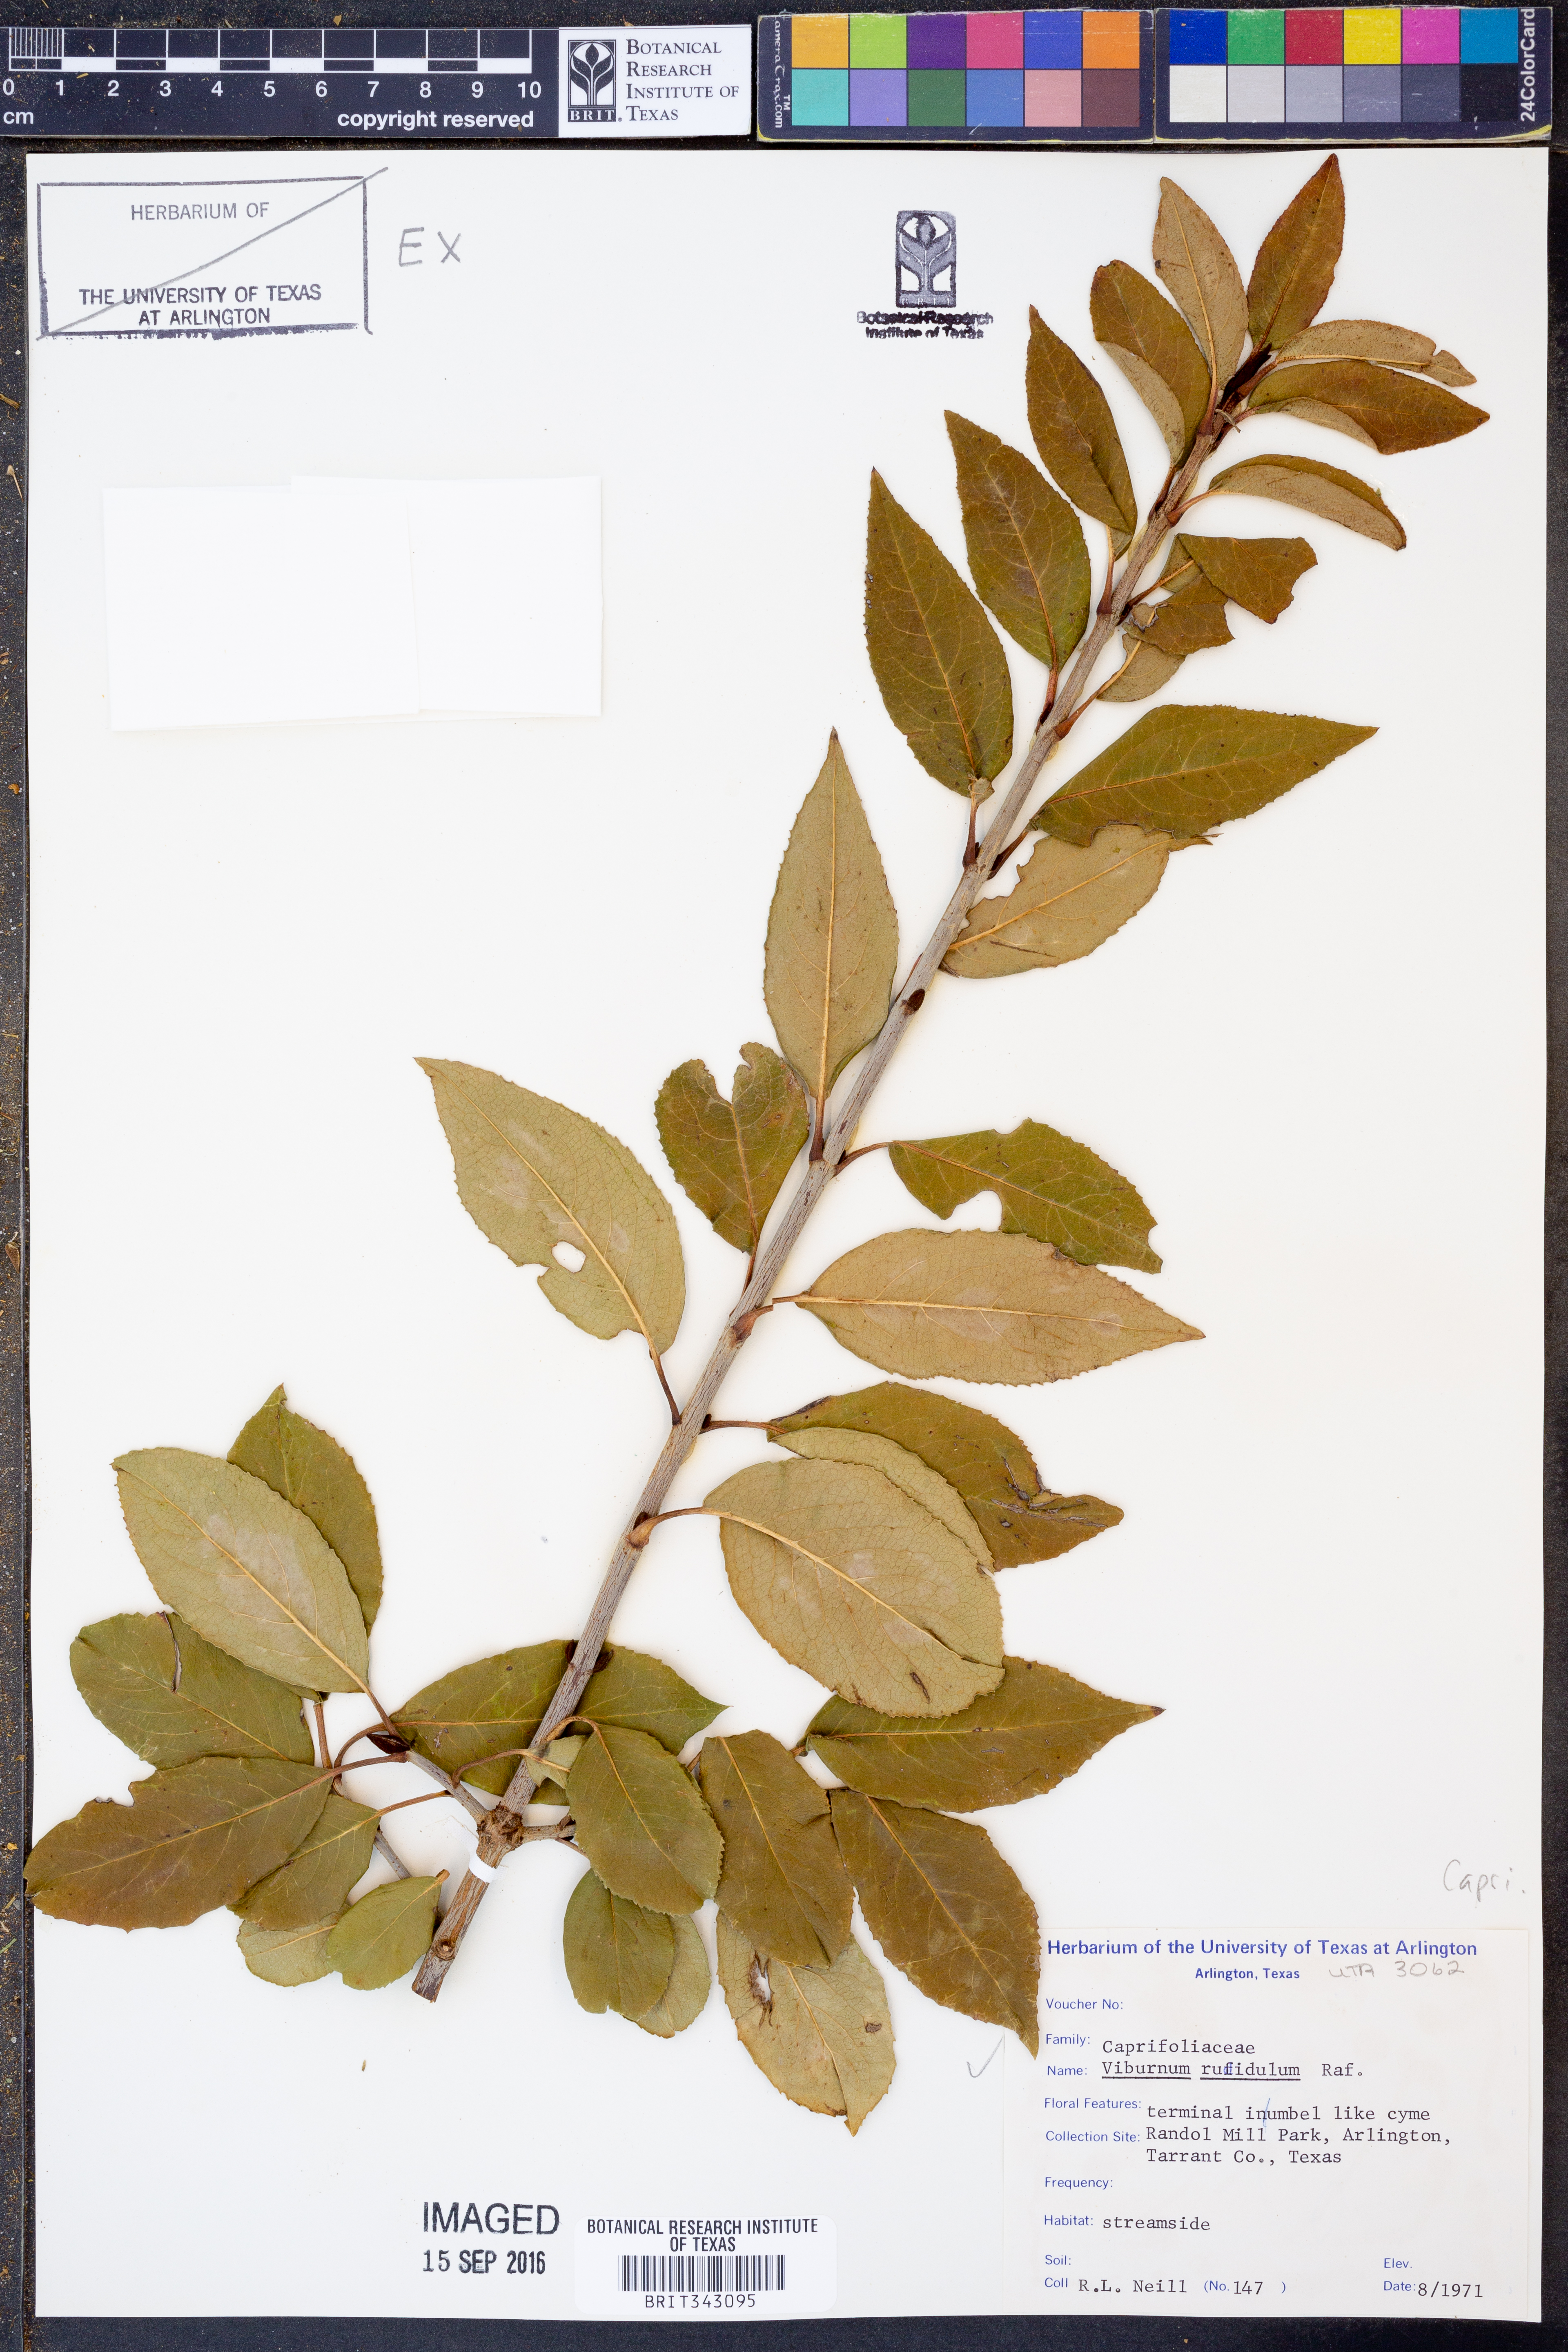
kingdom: Plantae
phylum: Tracheophyta
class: Magnoliopsida
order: Dipsacales
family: Viburnaceae
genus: Viburnum
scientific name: Viburnum rufidulum
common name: Blue haw
